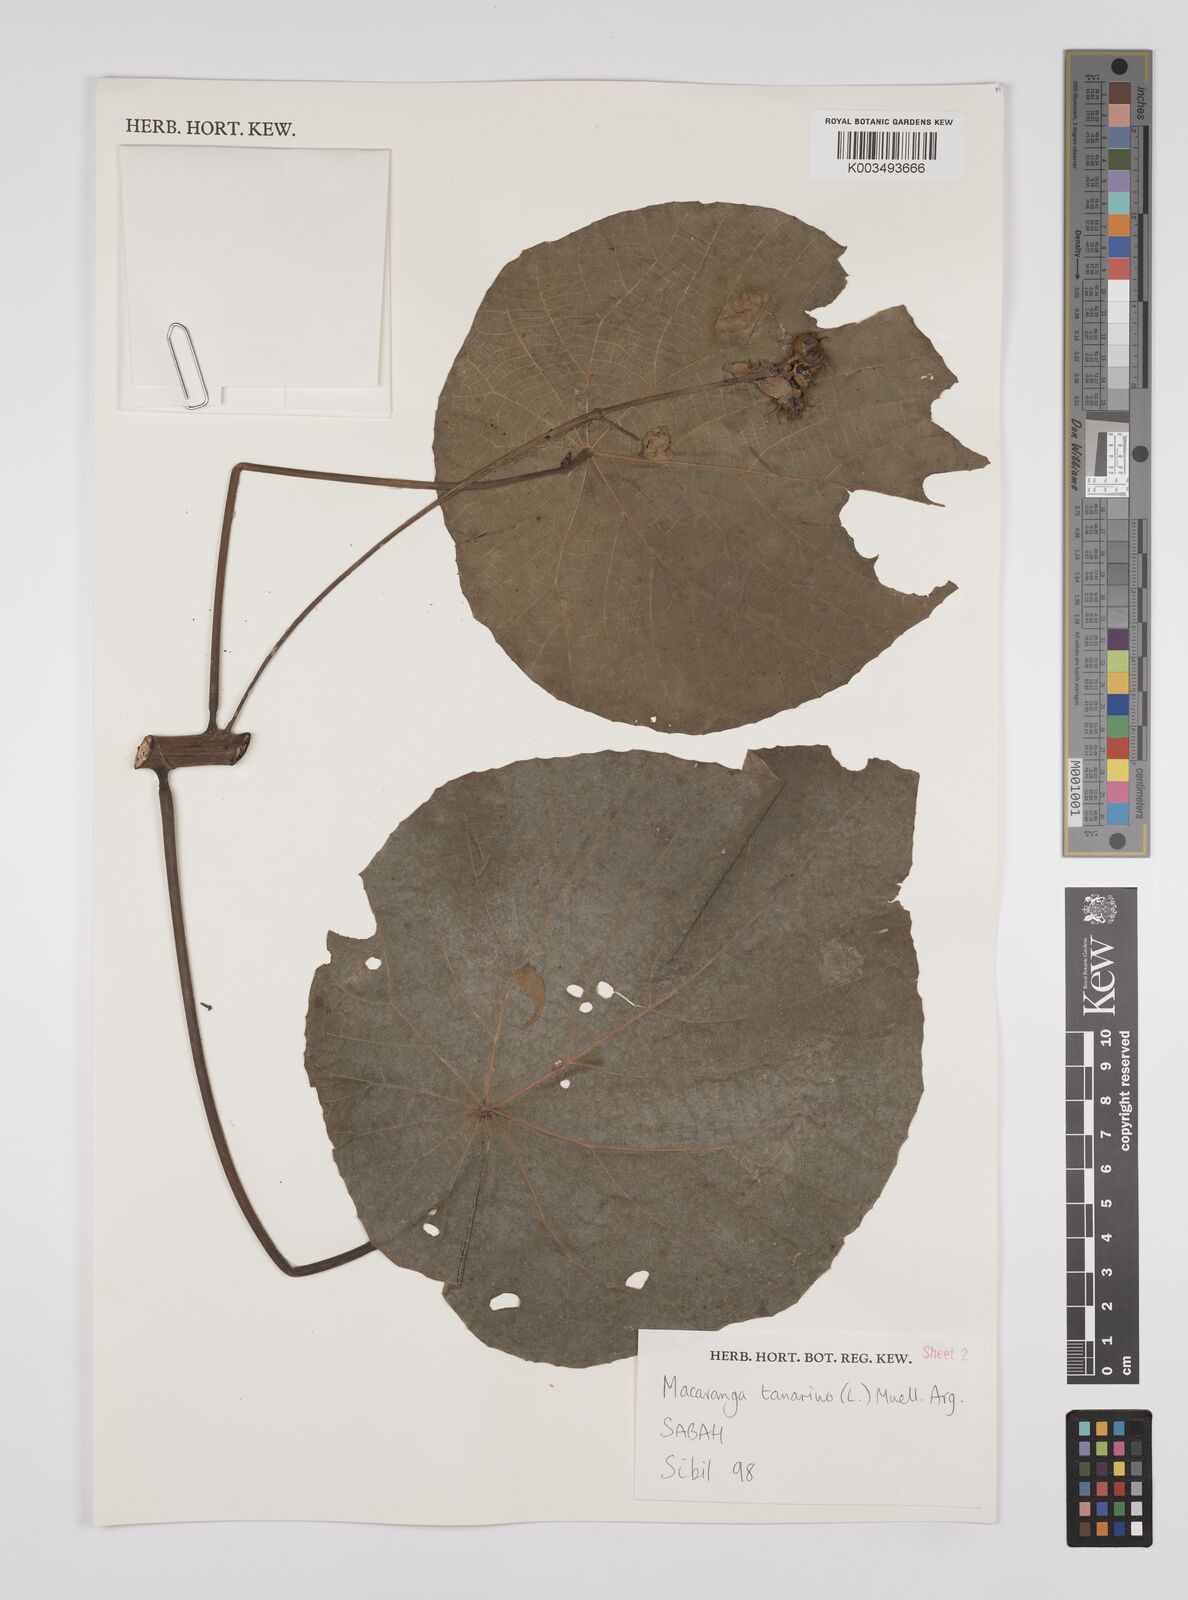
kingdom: Plantae
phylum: Tracheophyta
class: Magnoliopsida
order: Malpighiales
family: Euphorbiaceae
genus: Macaranga
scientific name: Macaranga tanarius
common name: Parasol leaf tree
